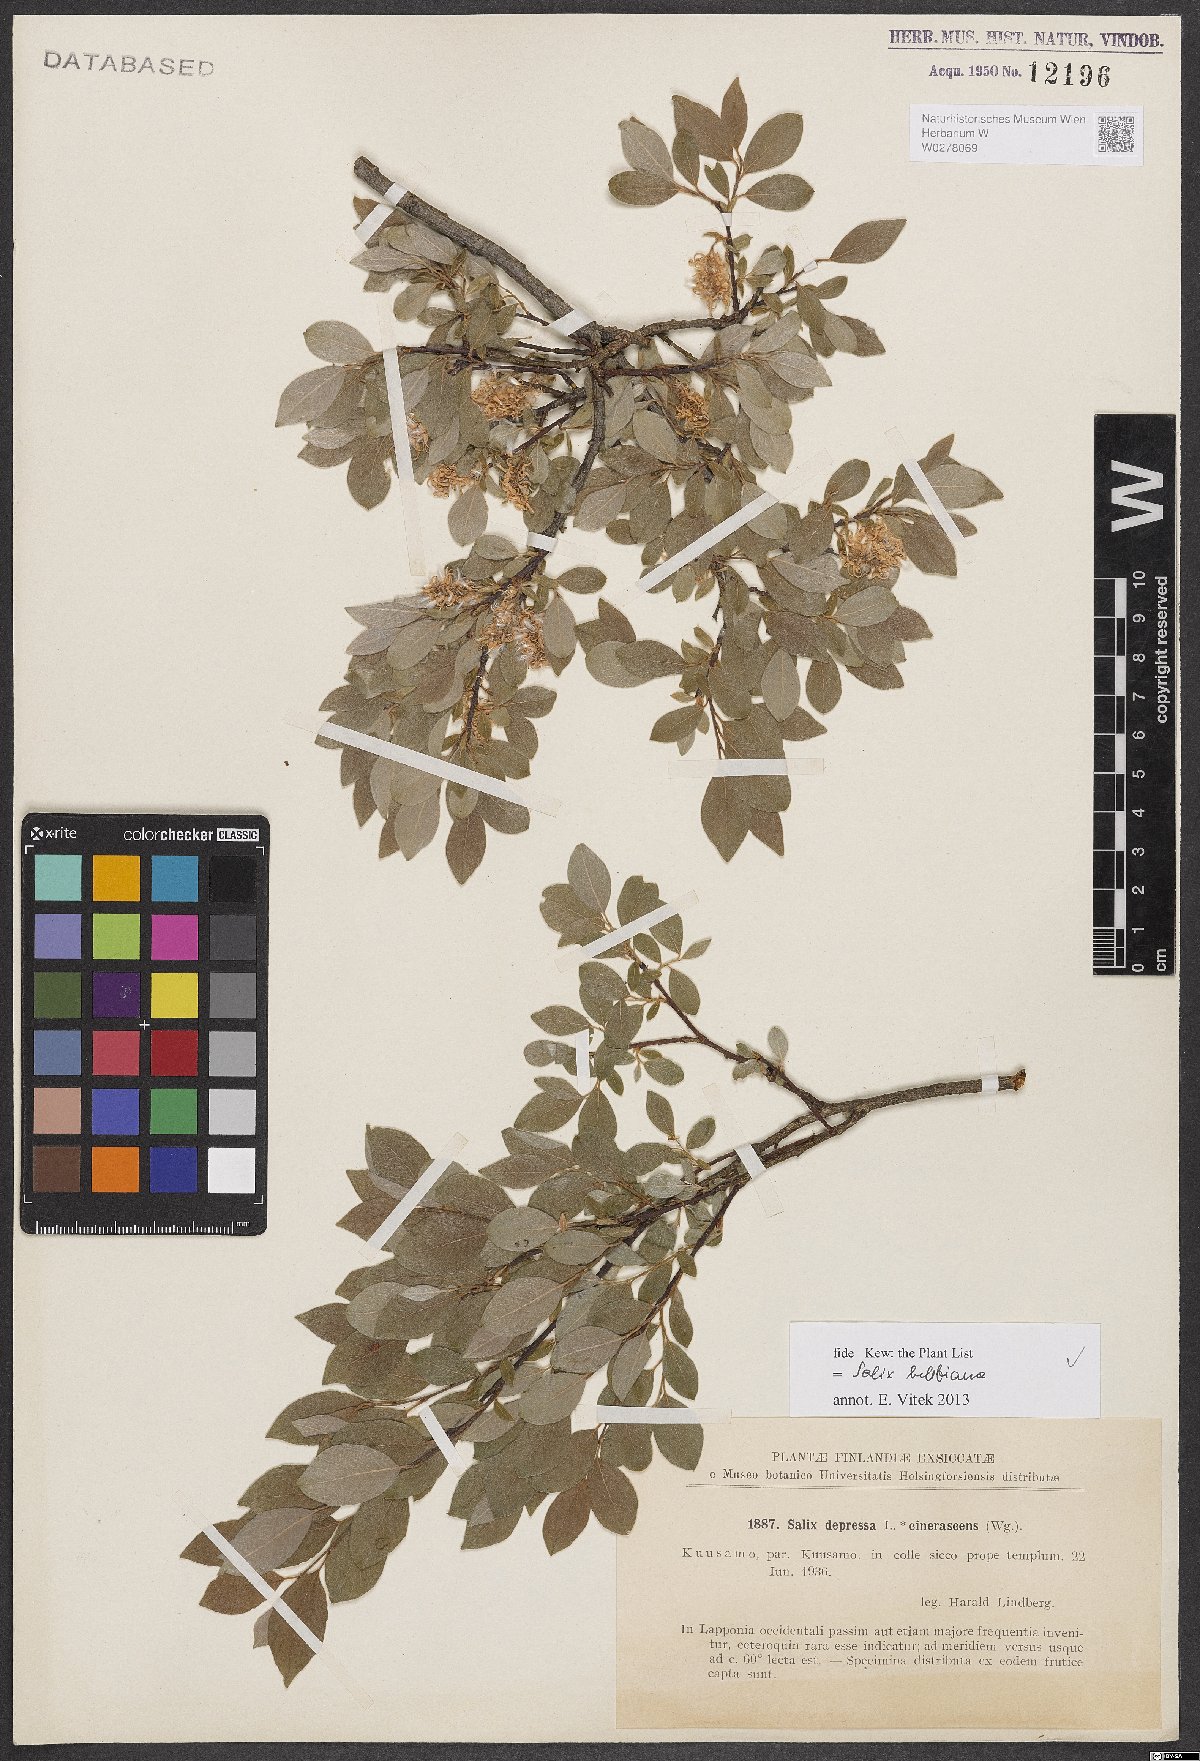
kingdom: Plantae
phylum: Tracheophyta
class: Magnoliopsida
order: Malpighiales
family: Salicaceae
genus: Salix
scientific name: Salix bebbiana
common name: Bebb's willow
